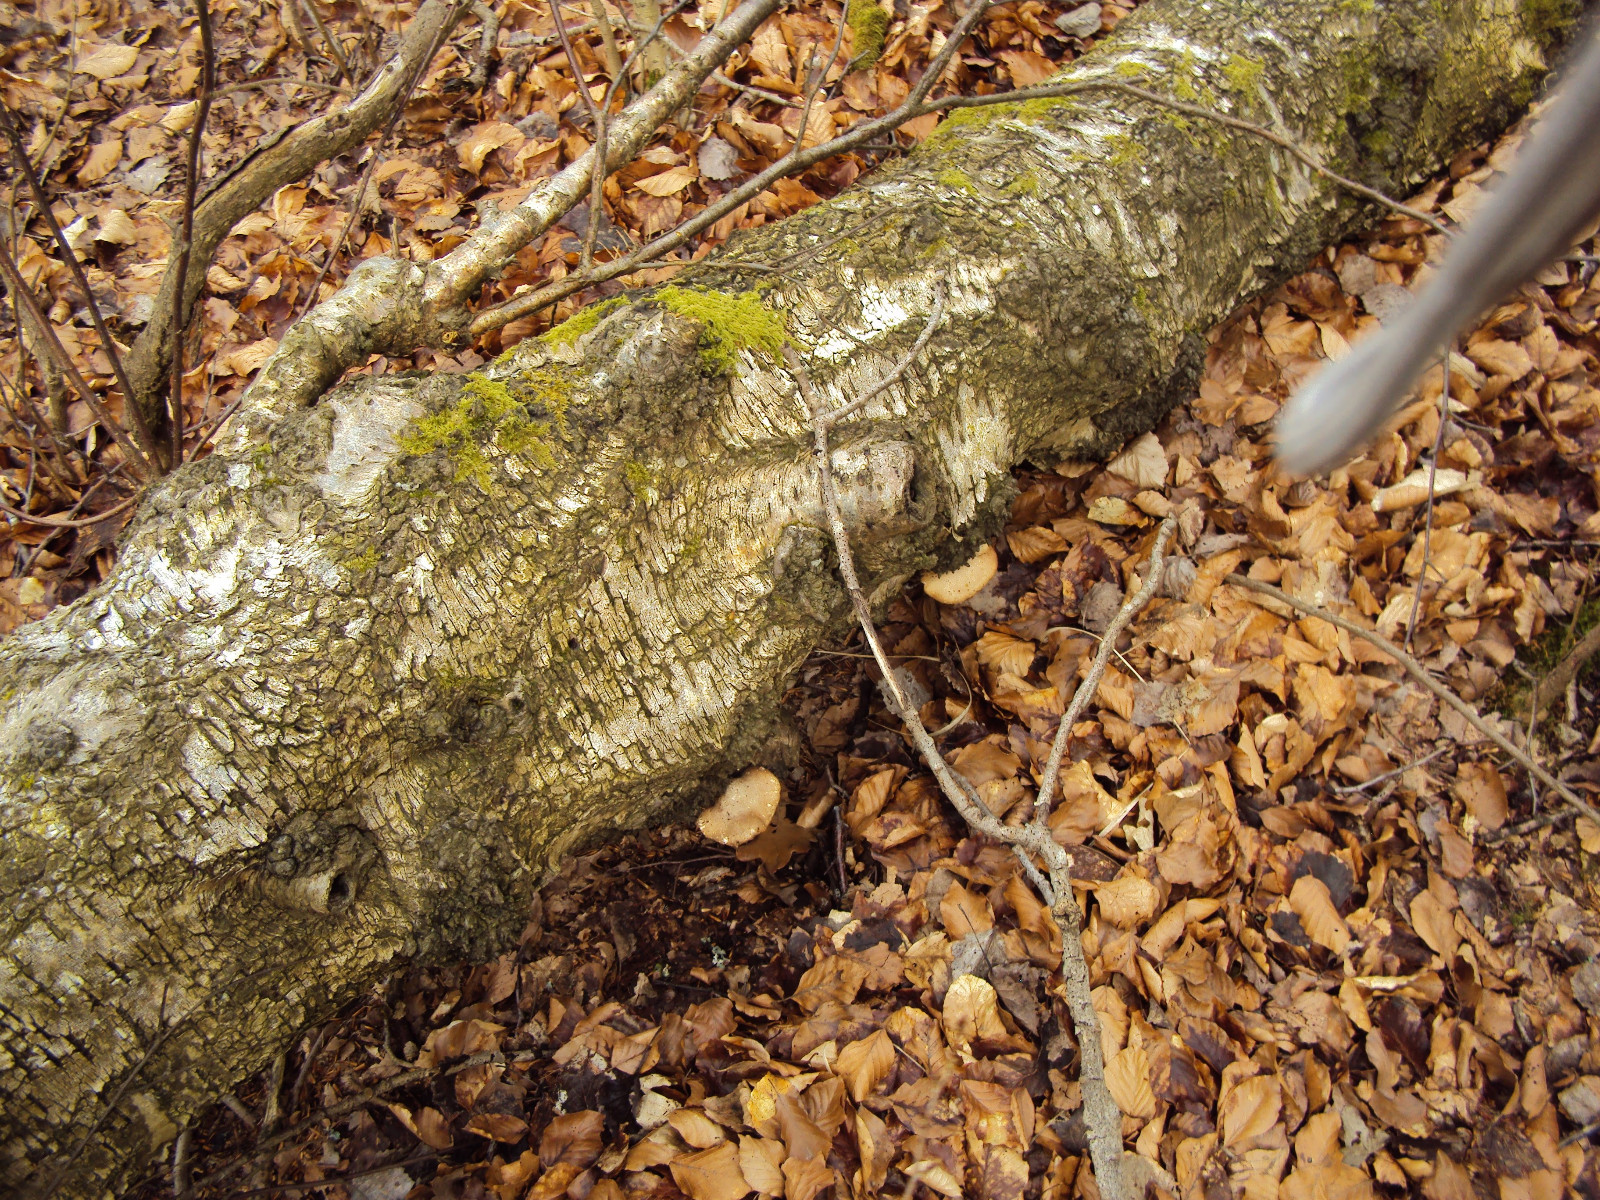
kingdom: Fungi
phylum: Basidiomycota
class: Agaricomycetes
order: Polyporales
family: Fomitopsidaceae
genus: Fomitopsis
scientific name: Fomitopsis betulina
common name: birkeporesvamp
